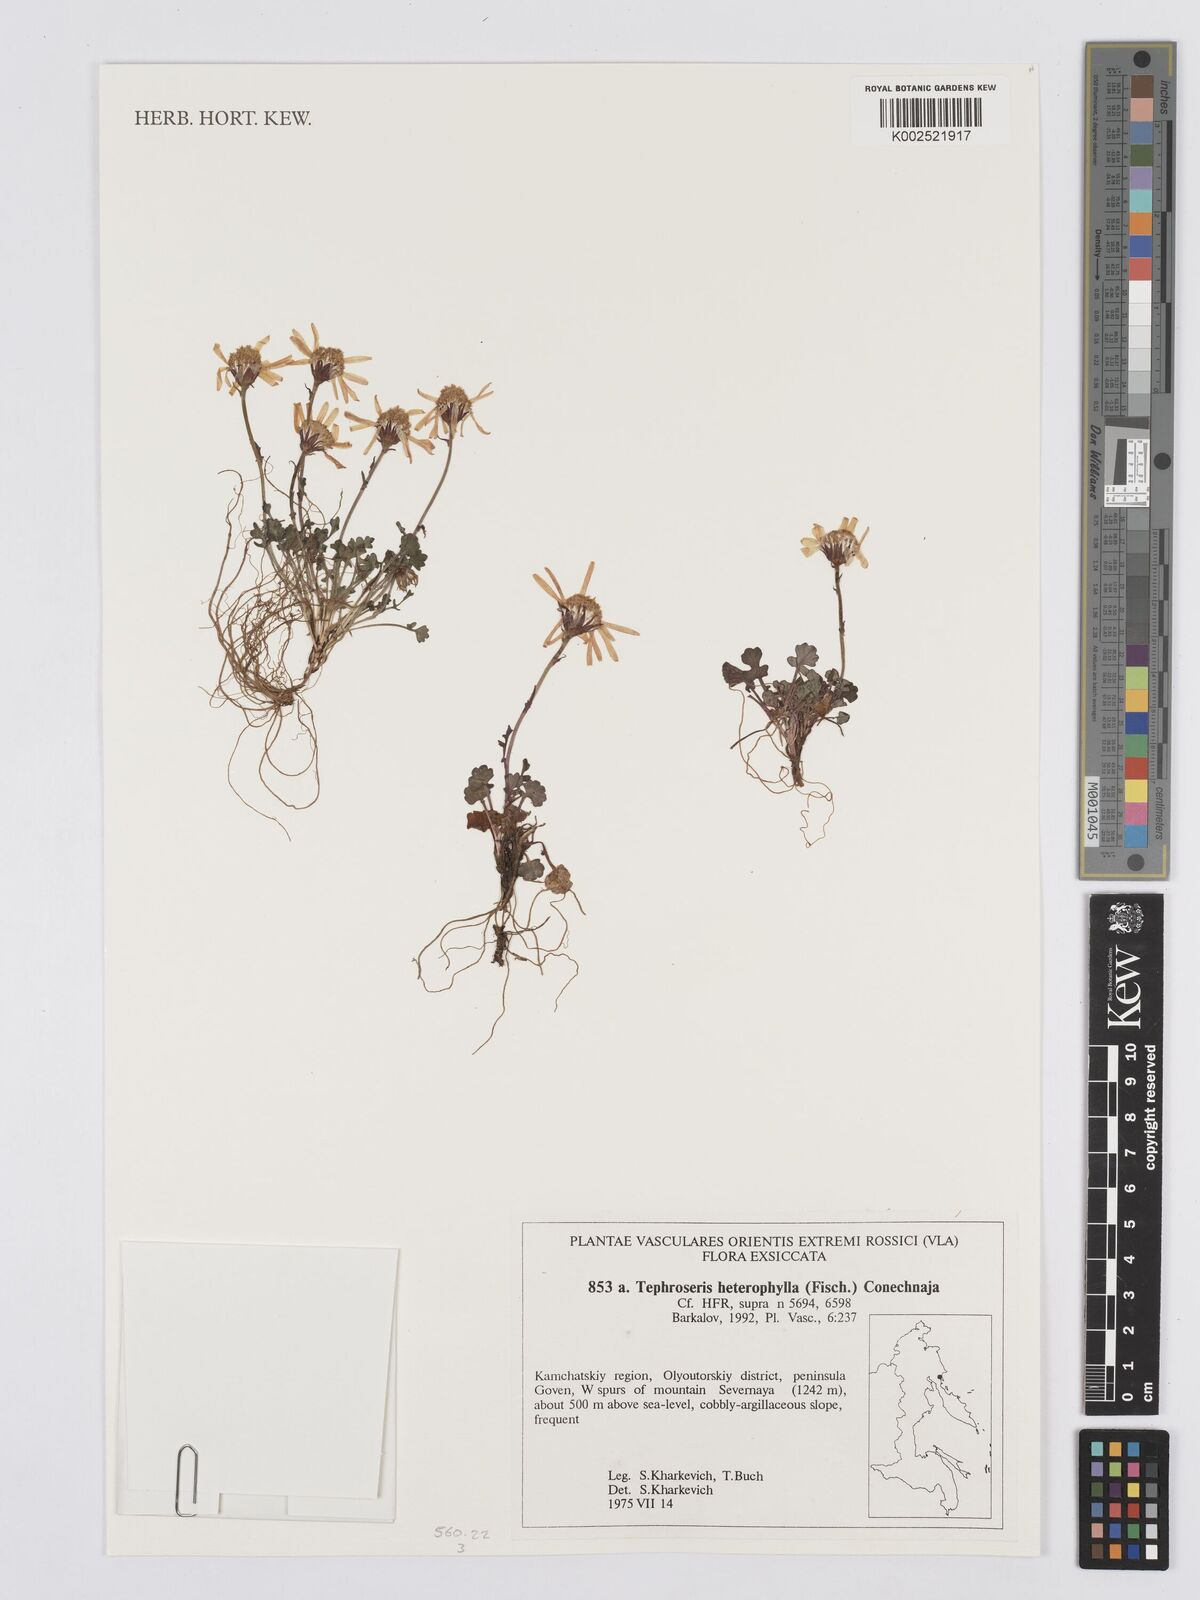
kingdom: Plantae
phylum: Tracheophyta
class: Magnoliopsida
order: Asterales
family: Asteraceae
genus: Packera
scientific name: Packera heterophylla
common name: Arctic butterweed
